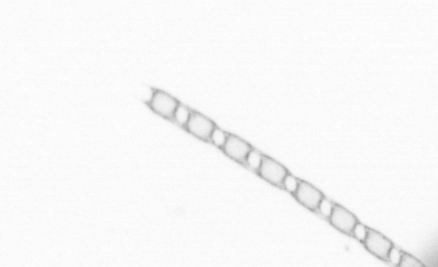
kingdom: Chromista
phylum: Ochrophyta
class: Bacillariophyceae
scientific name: Bacillariophyceae
